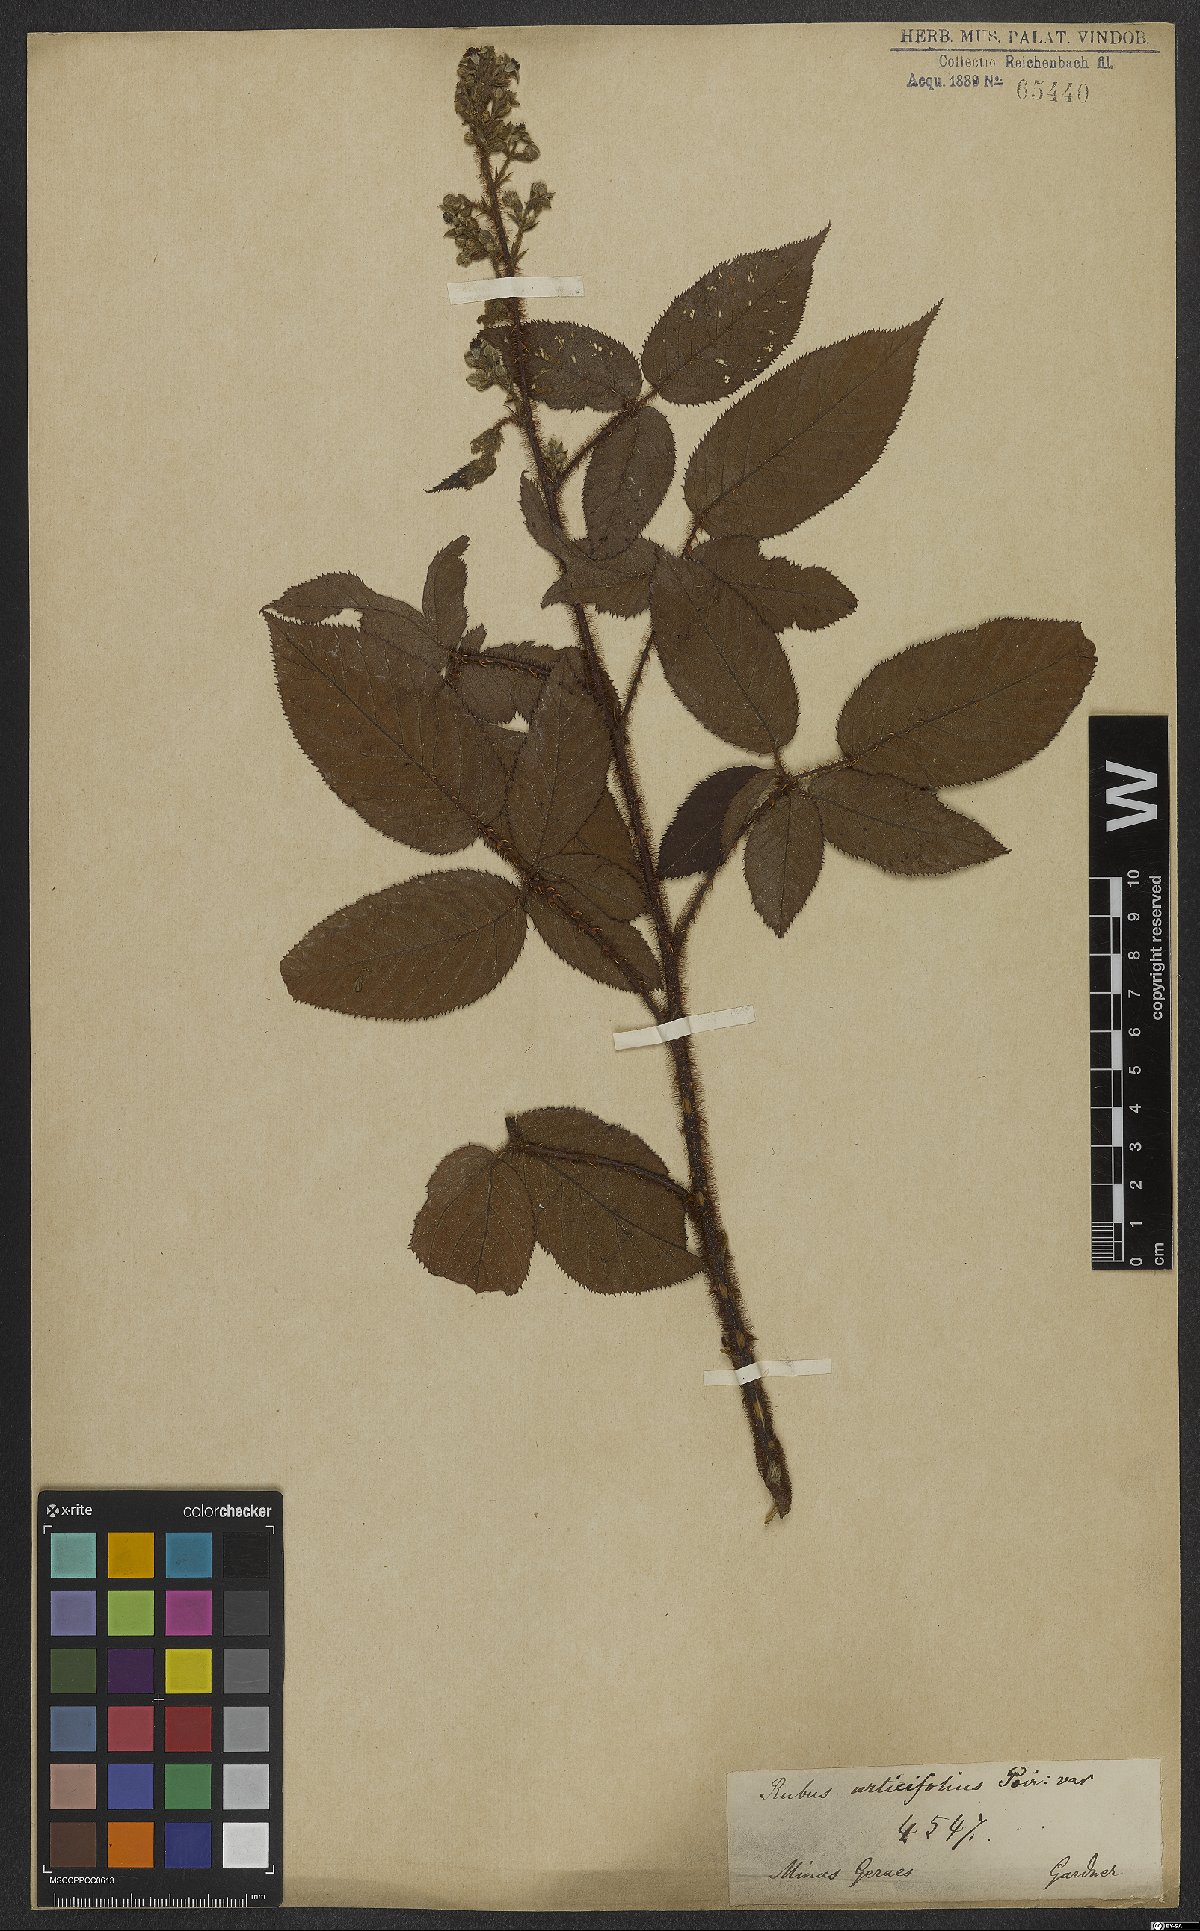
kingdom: Plantae
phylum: Tracheophyta
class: Magnoliopsida
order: Rosales
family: Rosaceae
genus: Rubus
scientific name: Rubus urticifolius
